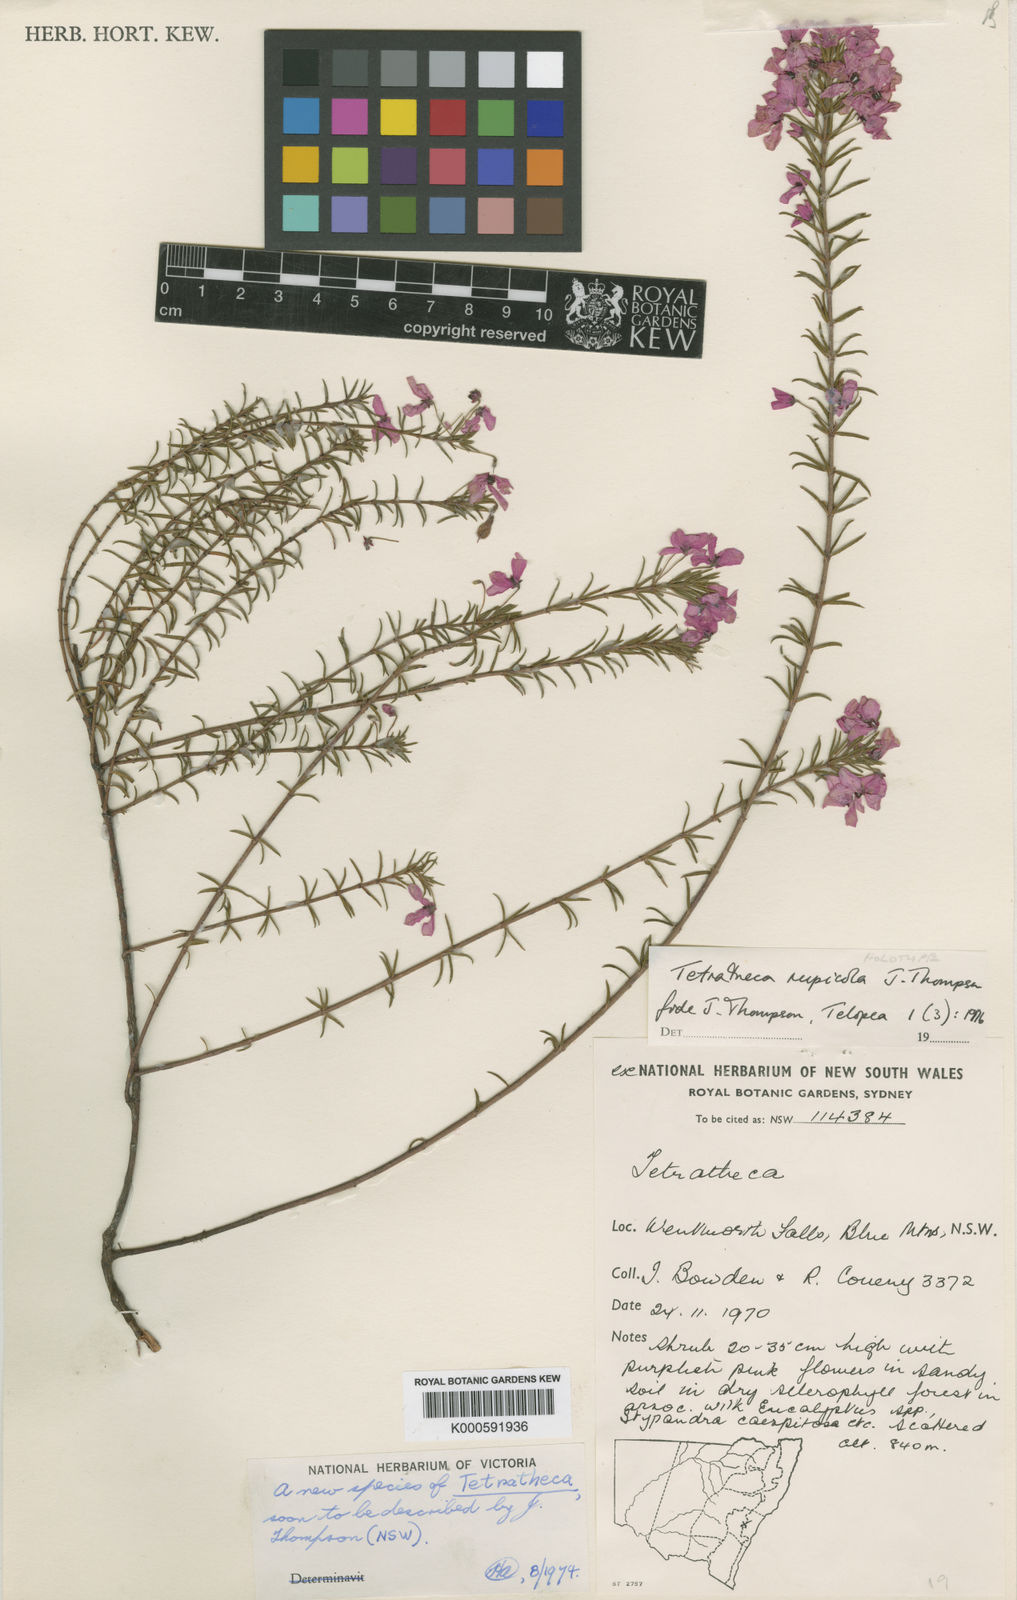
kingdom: Plantae
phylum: Tracheophyta
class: Magnoliopsida
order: Oxalidales
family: Elaeocarpaceae
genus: Tetratheca
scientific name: Tetratheca rupicola
